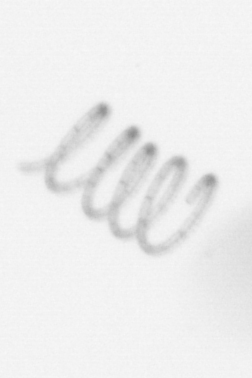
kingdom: Chromista
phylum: Ochrophyta
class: Bacillariophyceae
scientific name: Bacillariophyceae
